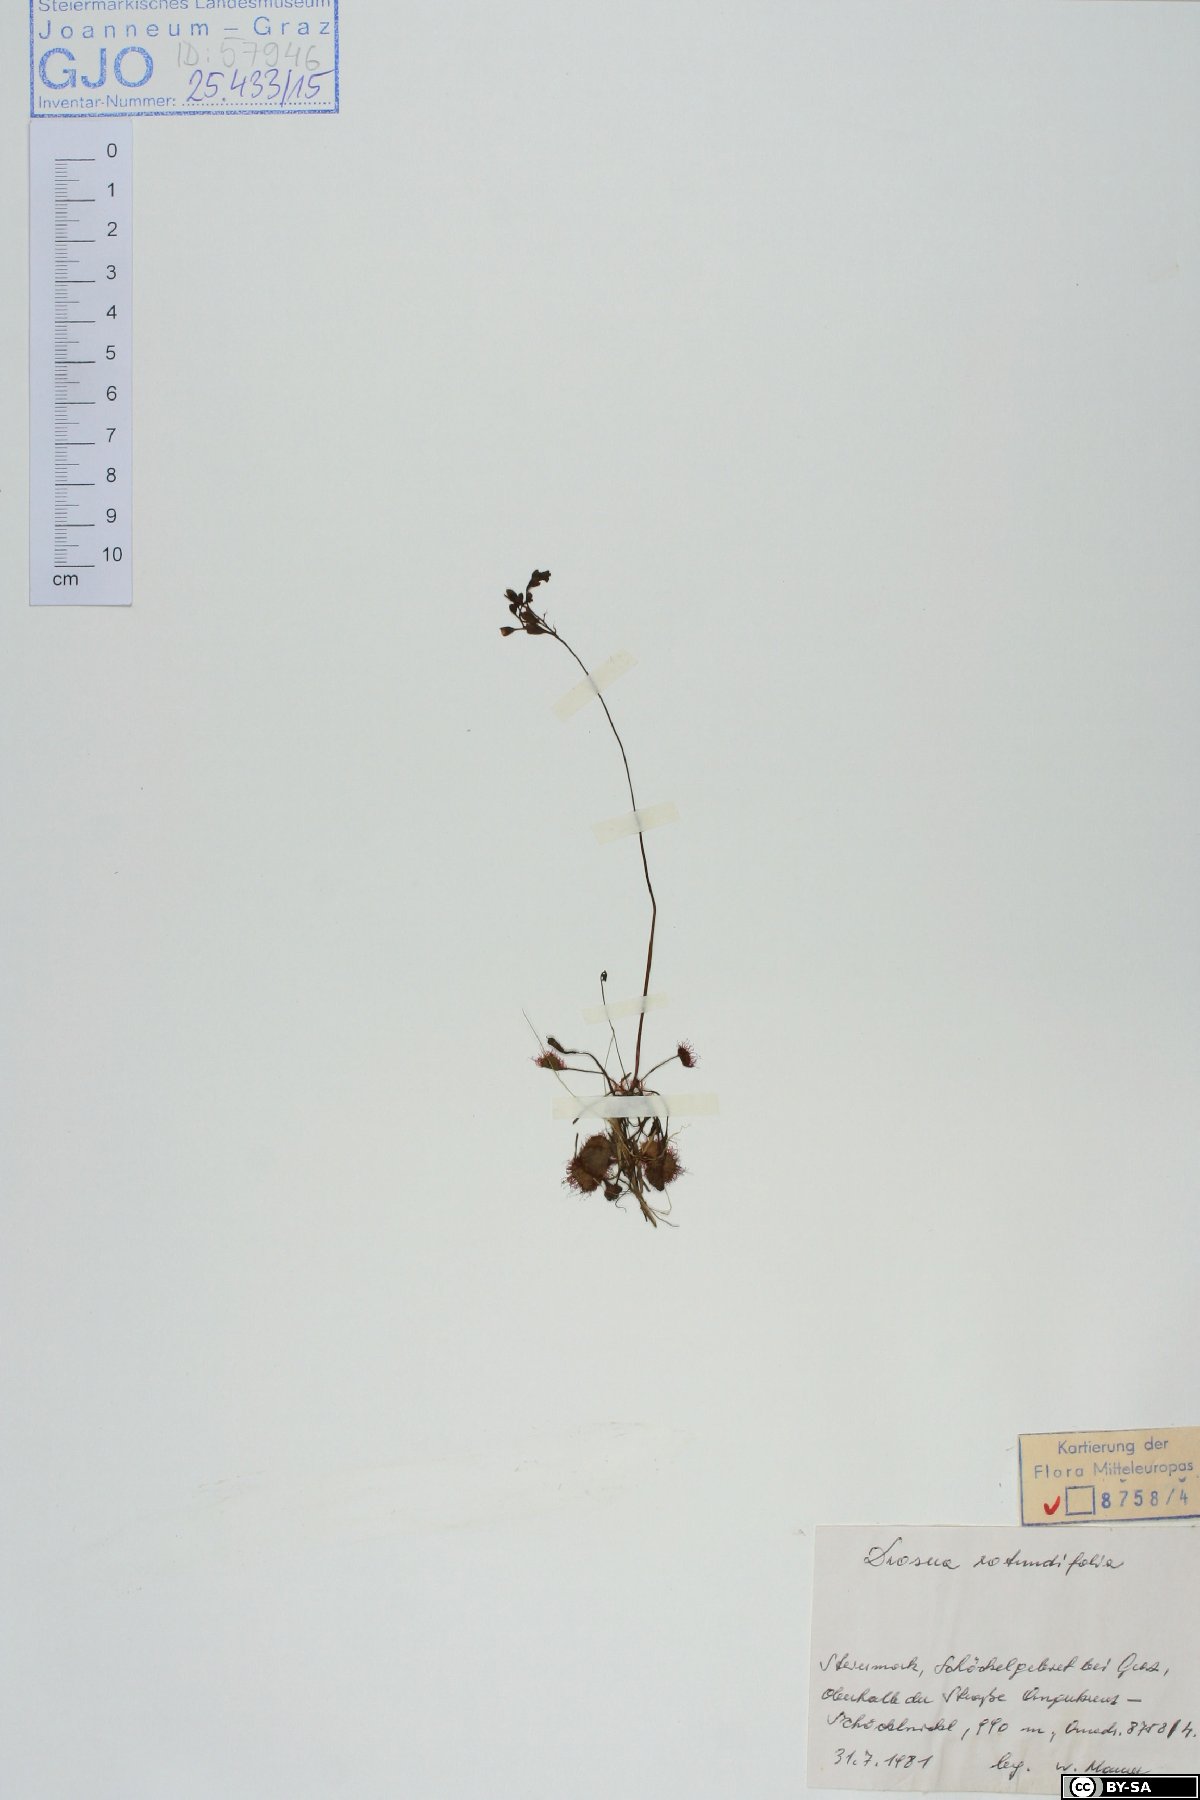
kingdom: Plantae
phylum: Tracheophyta
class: Magnoliopsida
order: Caryophyllales
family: Droseraceae
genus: Drosera
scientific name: Drosera rotundifolia
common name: Round-leaved sundew
